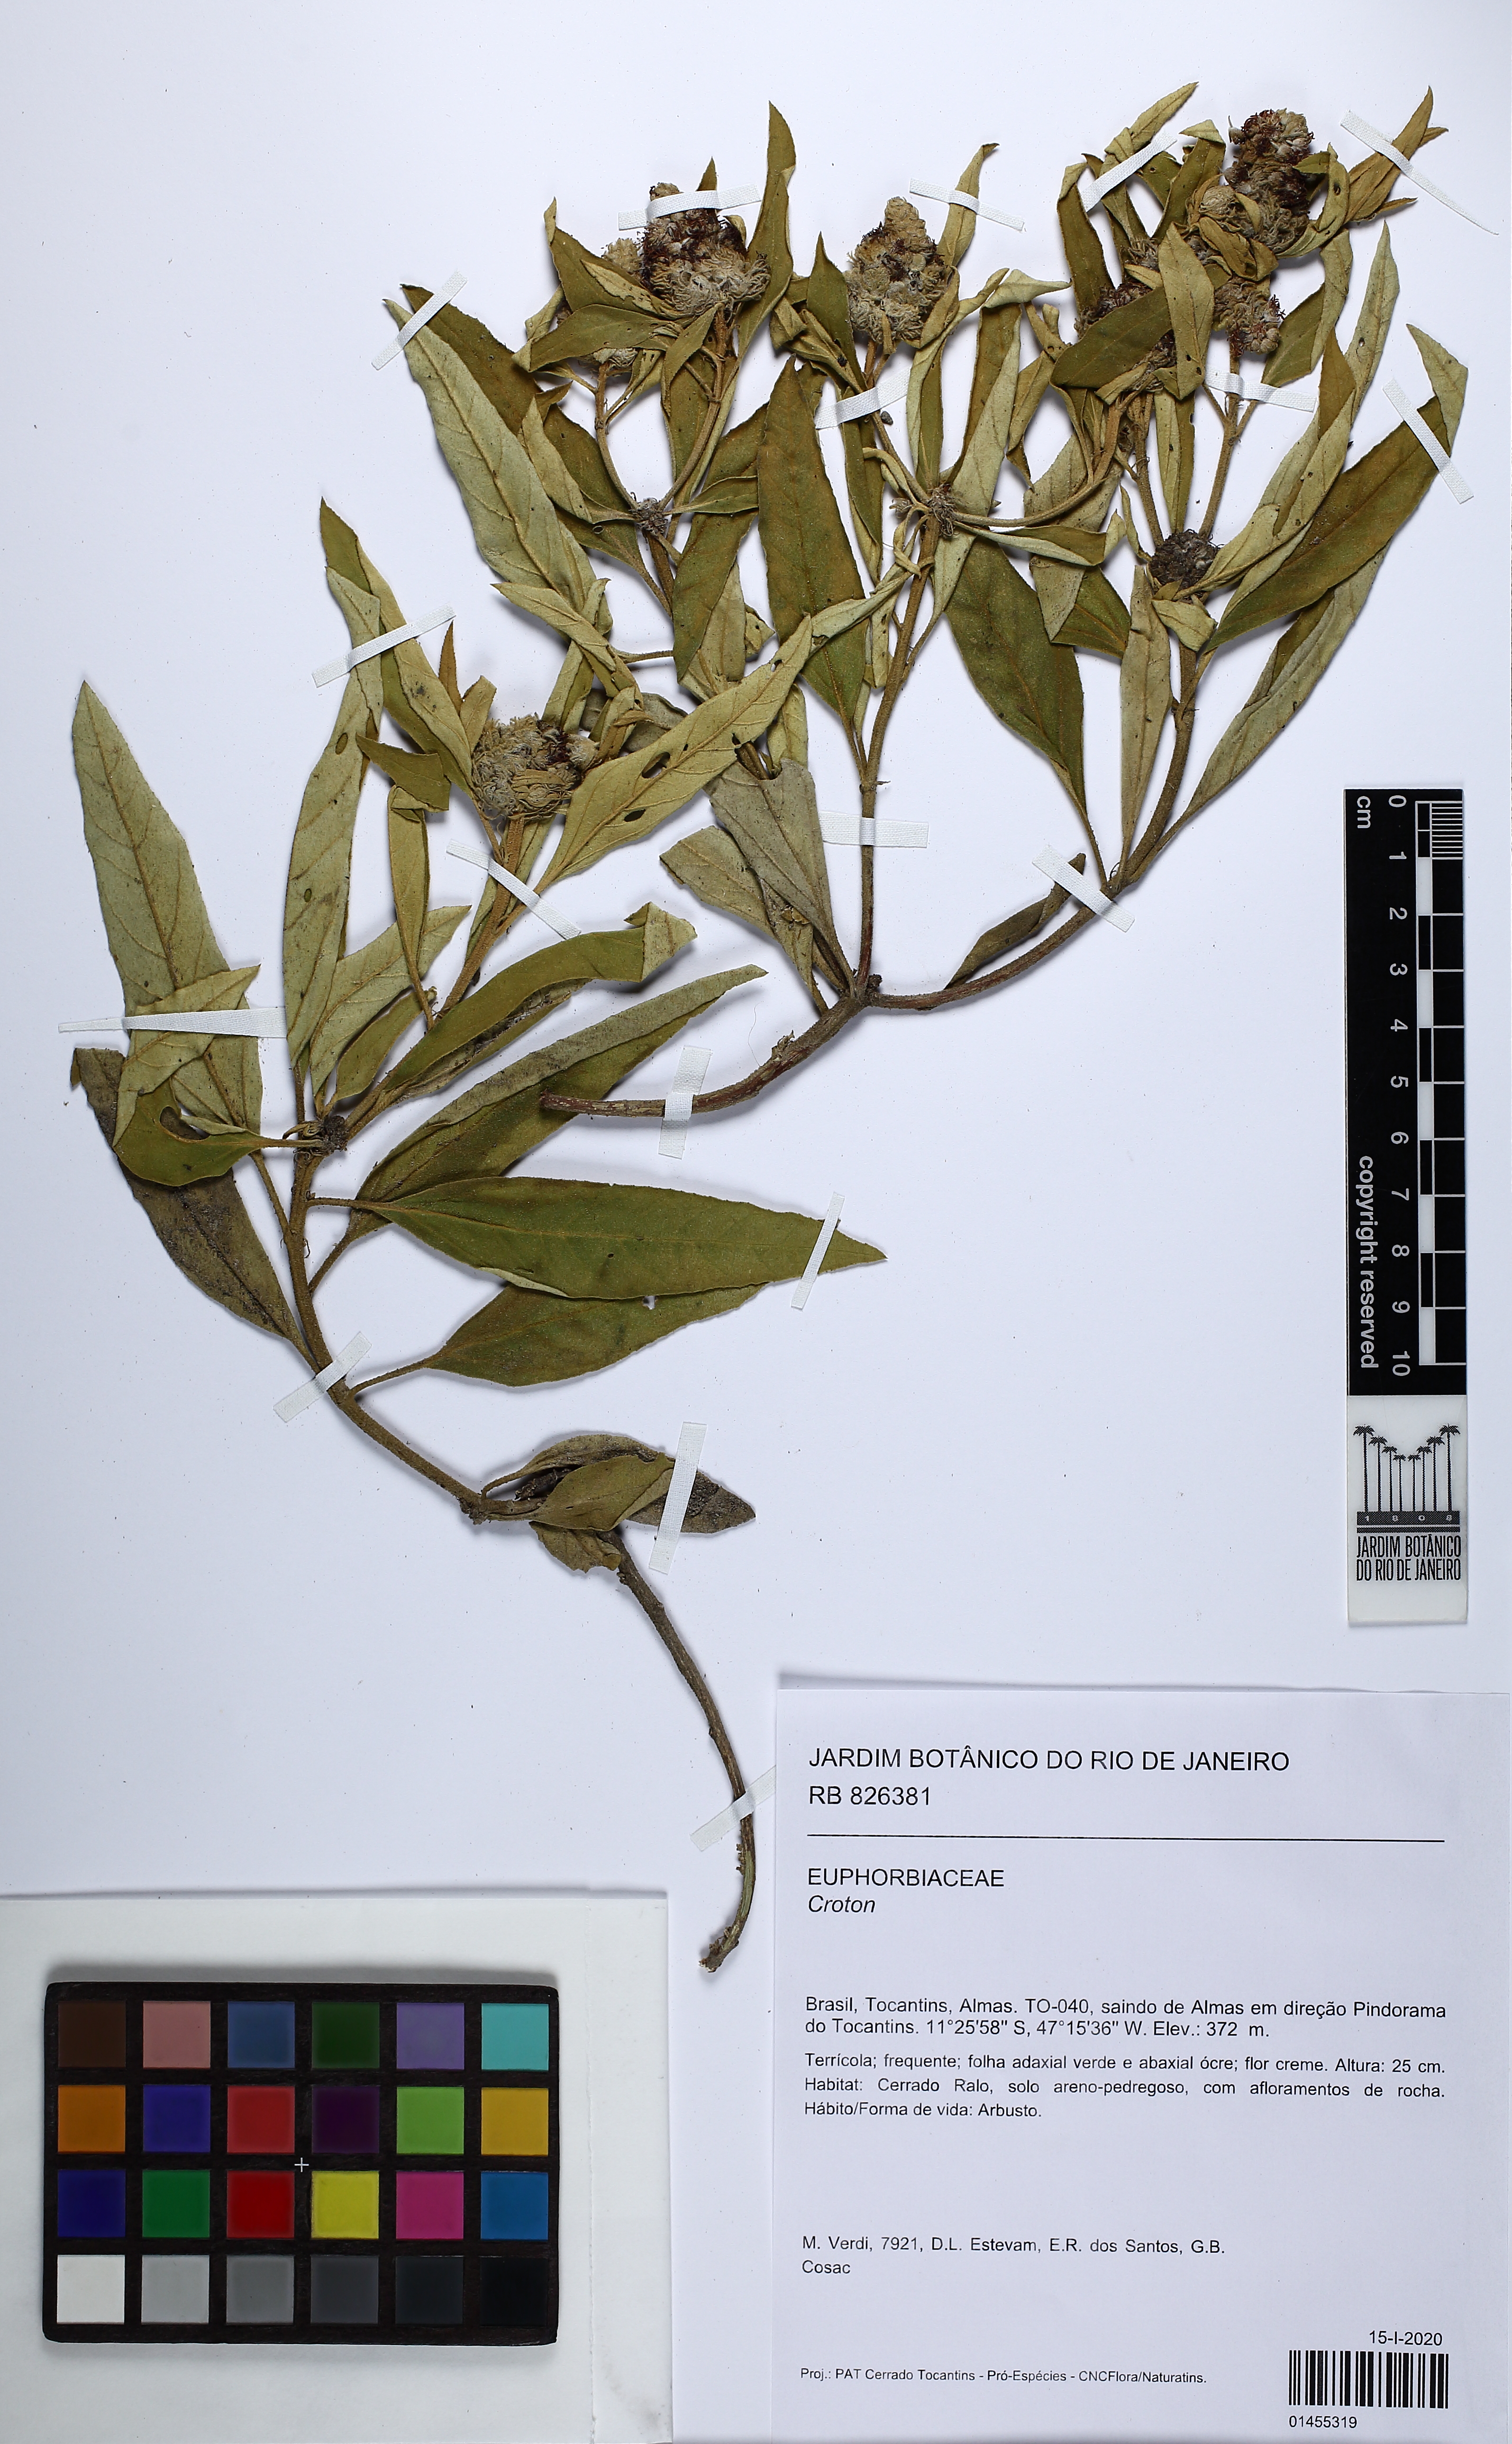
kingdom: Plantae
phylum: Tracheophyta
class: Magnoliopsida
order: Malpighiales
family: Euphorbiaceae
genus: Croton
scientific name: Croton
